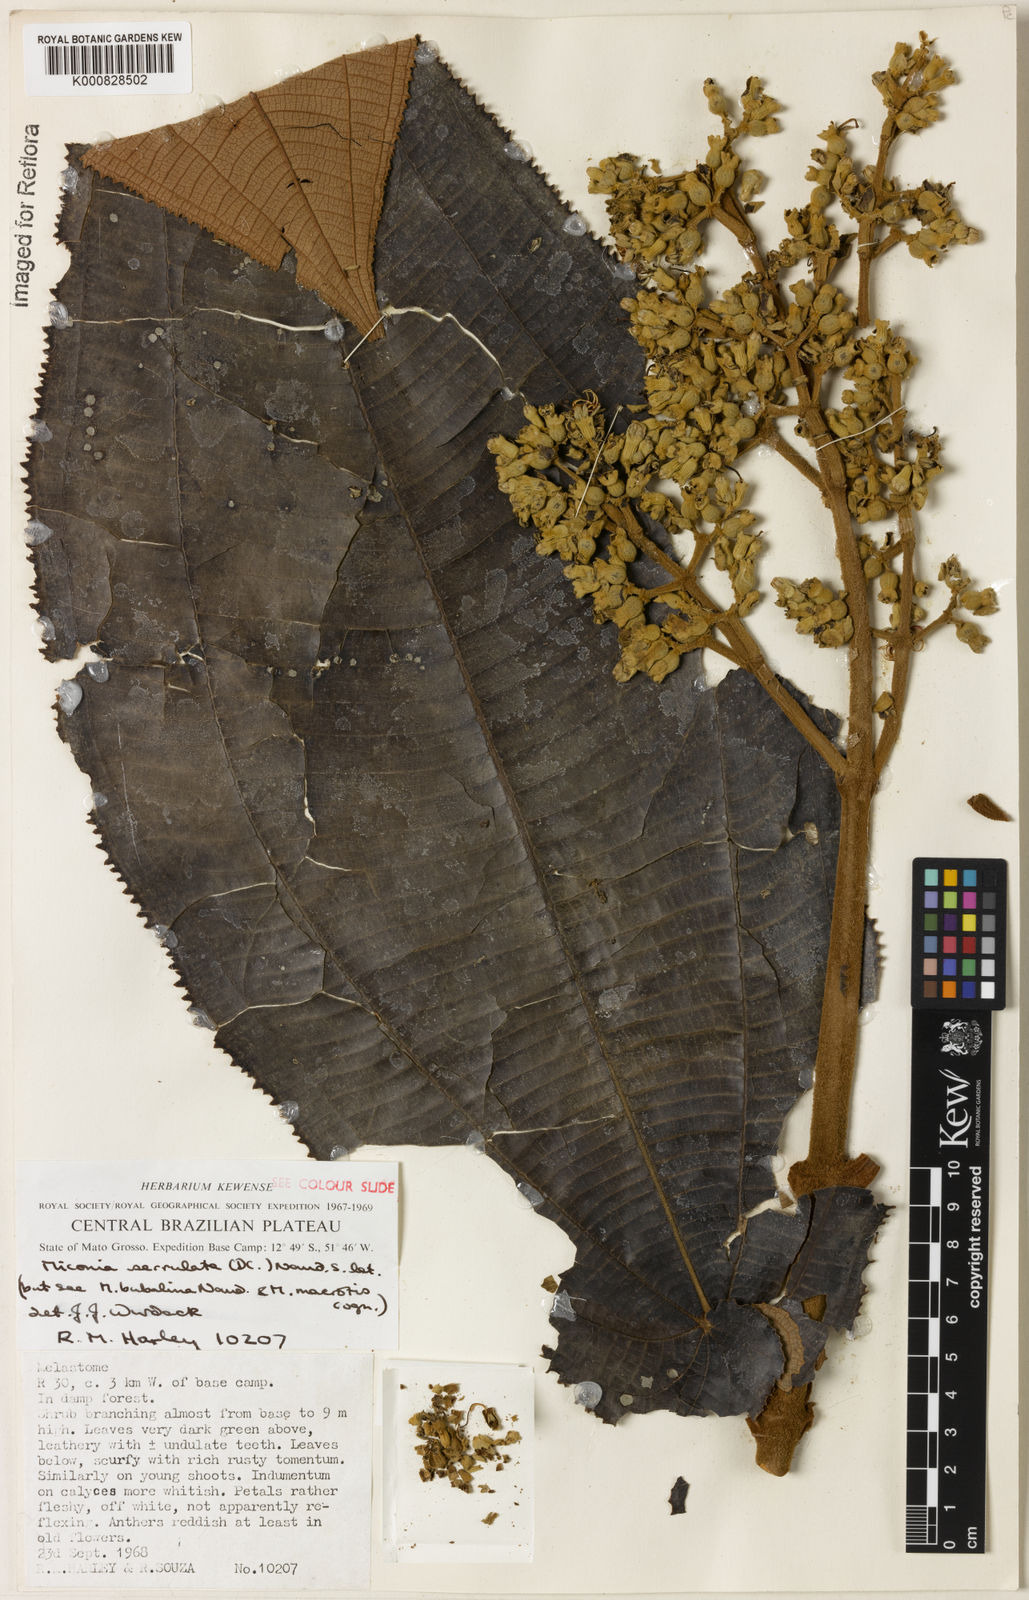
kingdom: Plantae
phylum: Tracheophyta
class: Magnoliopsida
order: Myrtales
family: Melastomataceae
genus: Miconia
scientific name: Miconia serrulata
